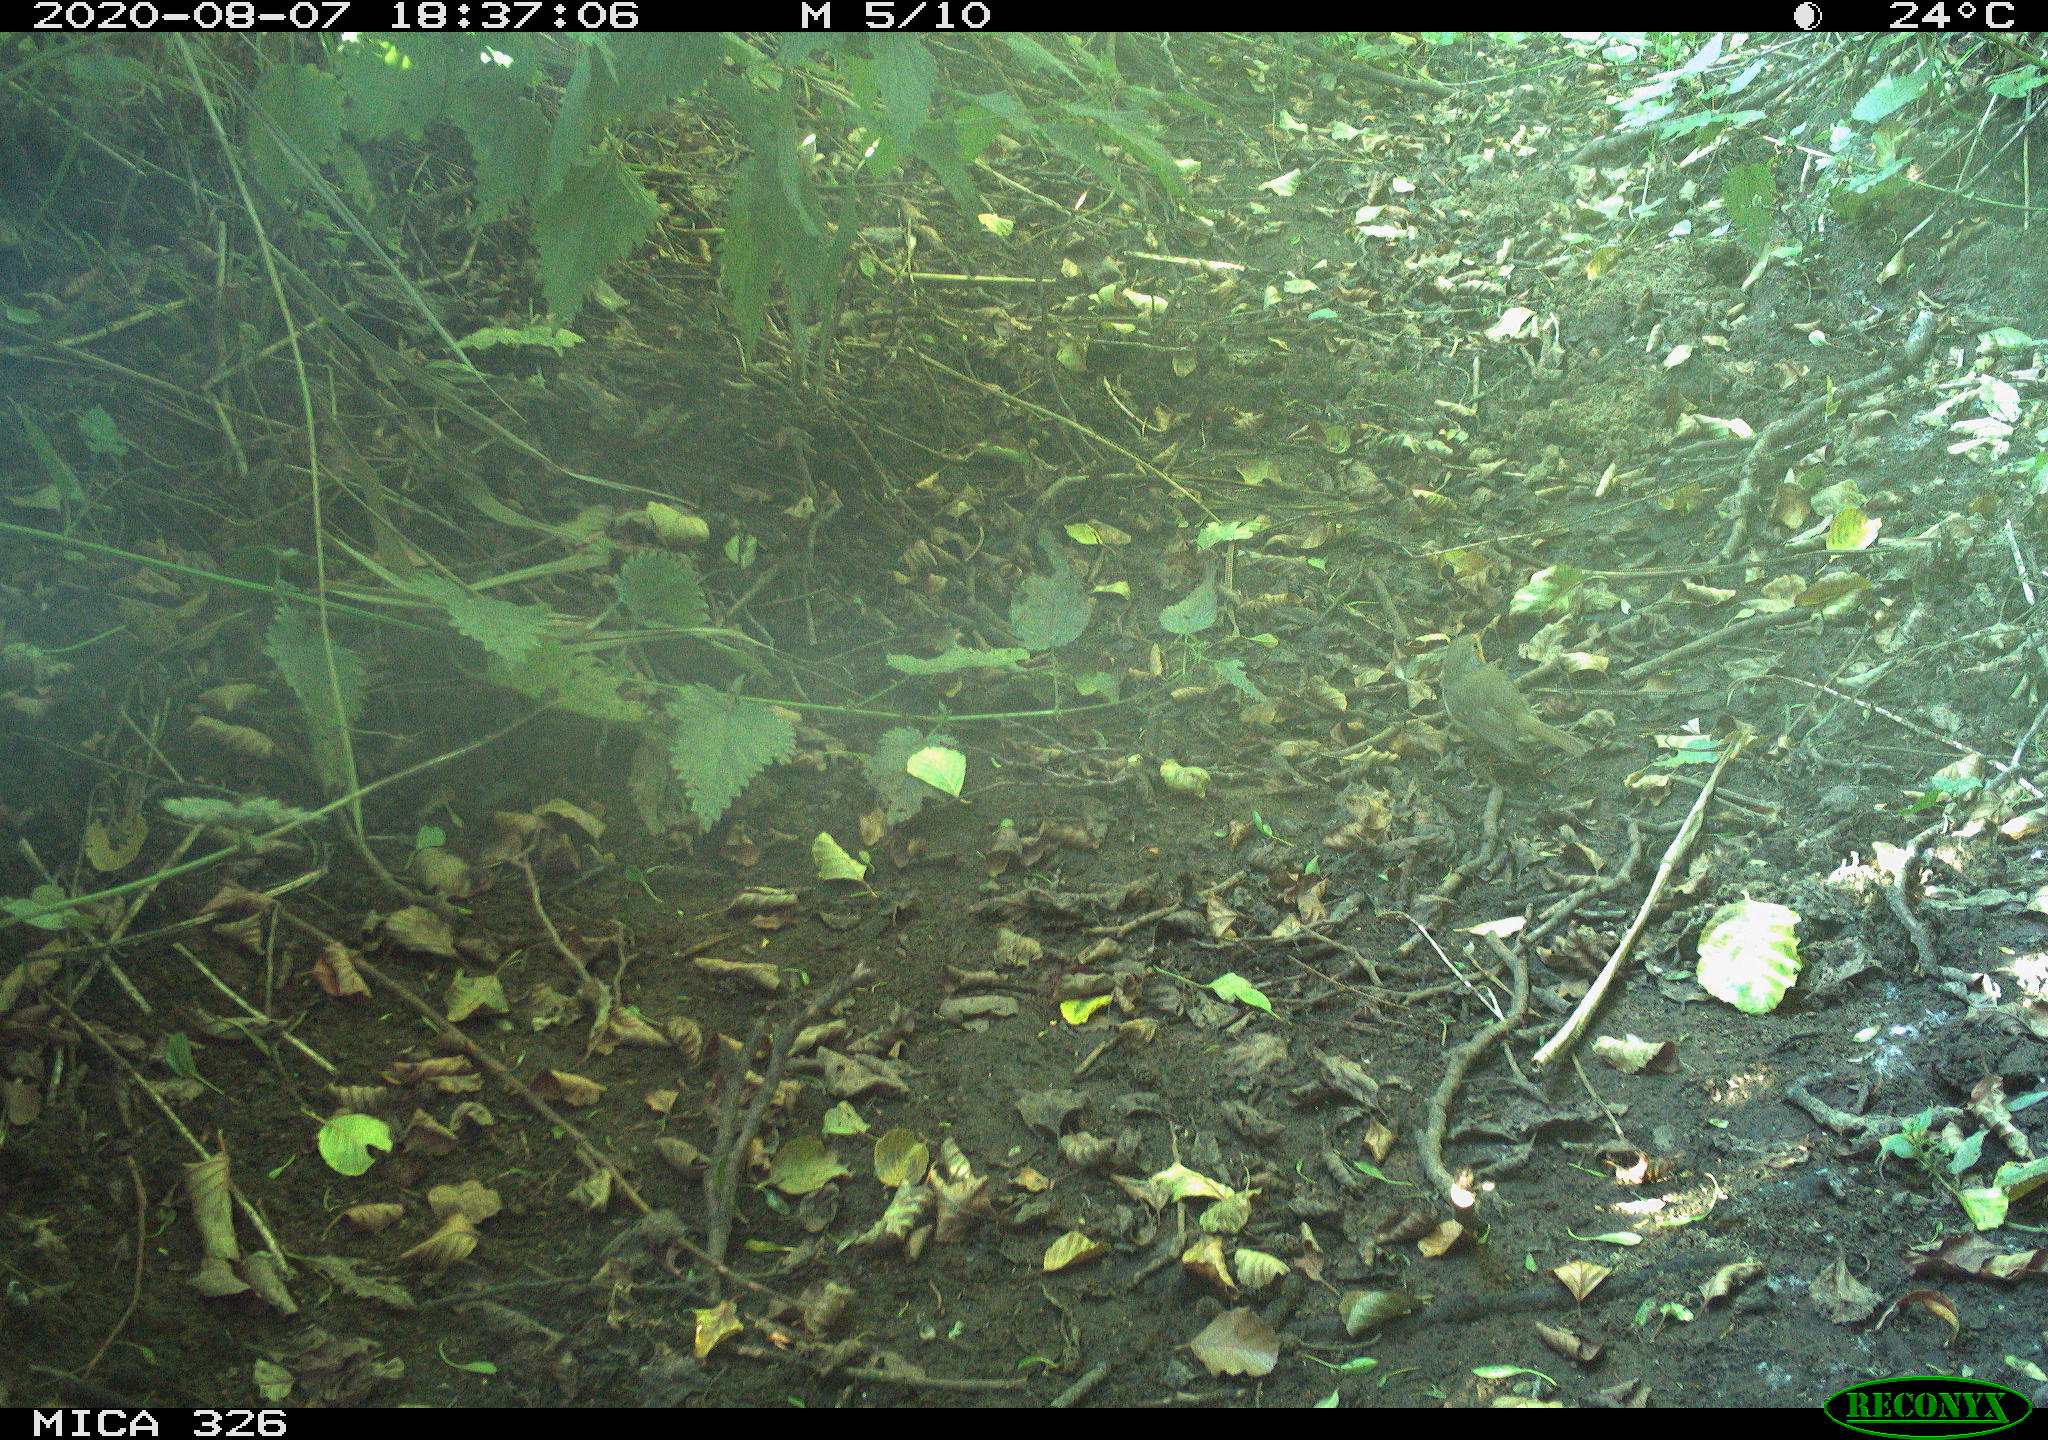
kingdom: Animalia
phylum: Chordata
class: Aves
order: Passeriformes
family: Muscicapidae
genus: Erithacus
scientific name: Erithacus rubecula
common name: European robin
